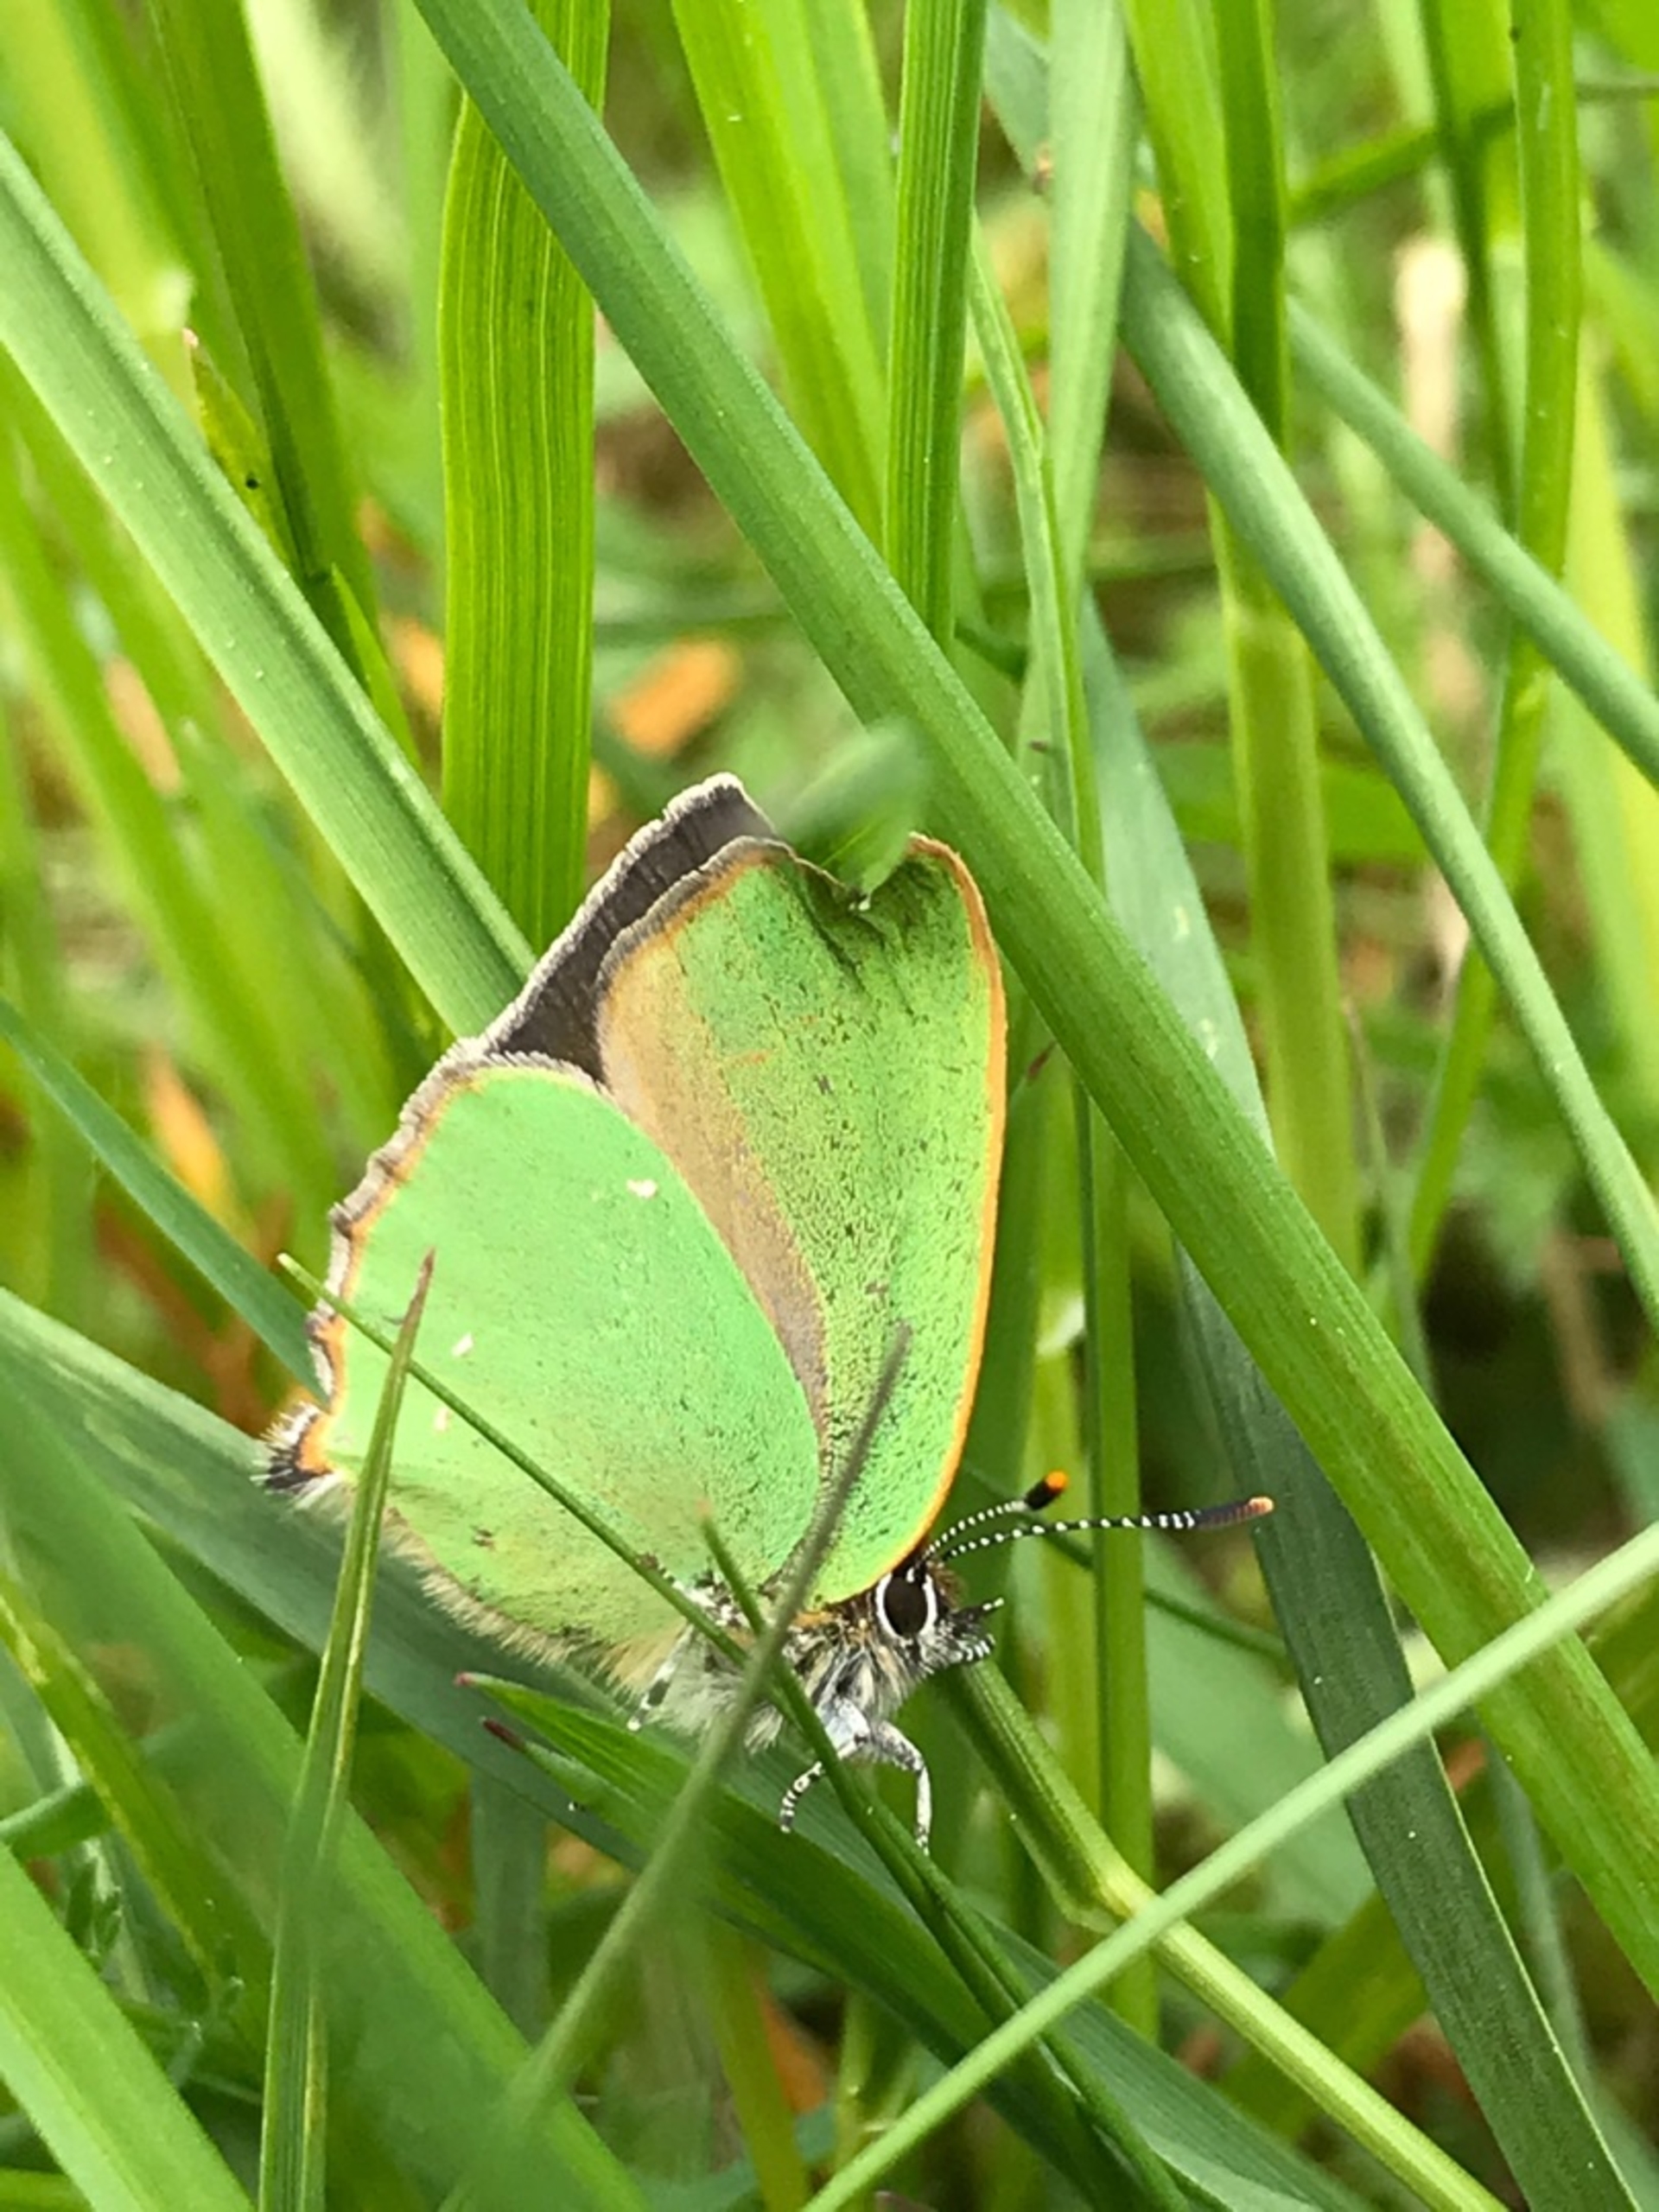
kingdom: Animalia
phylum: Arthropoda
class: Insecta
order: Lepidoptera
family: Lycaenidae
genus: Callophrys
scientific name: Callophrys rubi
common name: Grøn busksommerfugl
